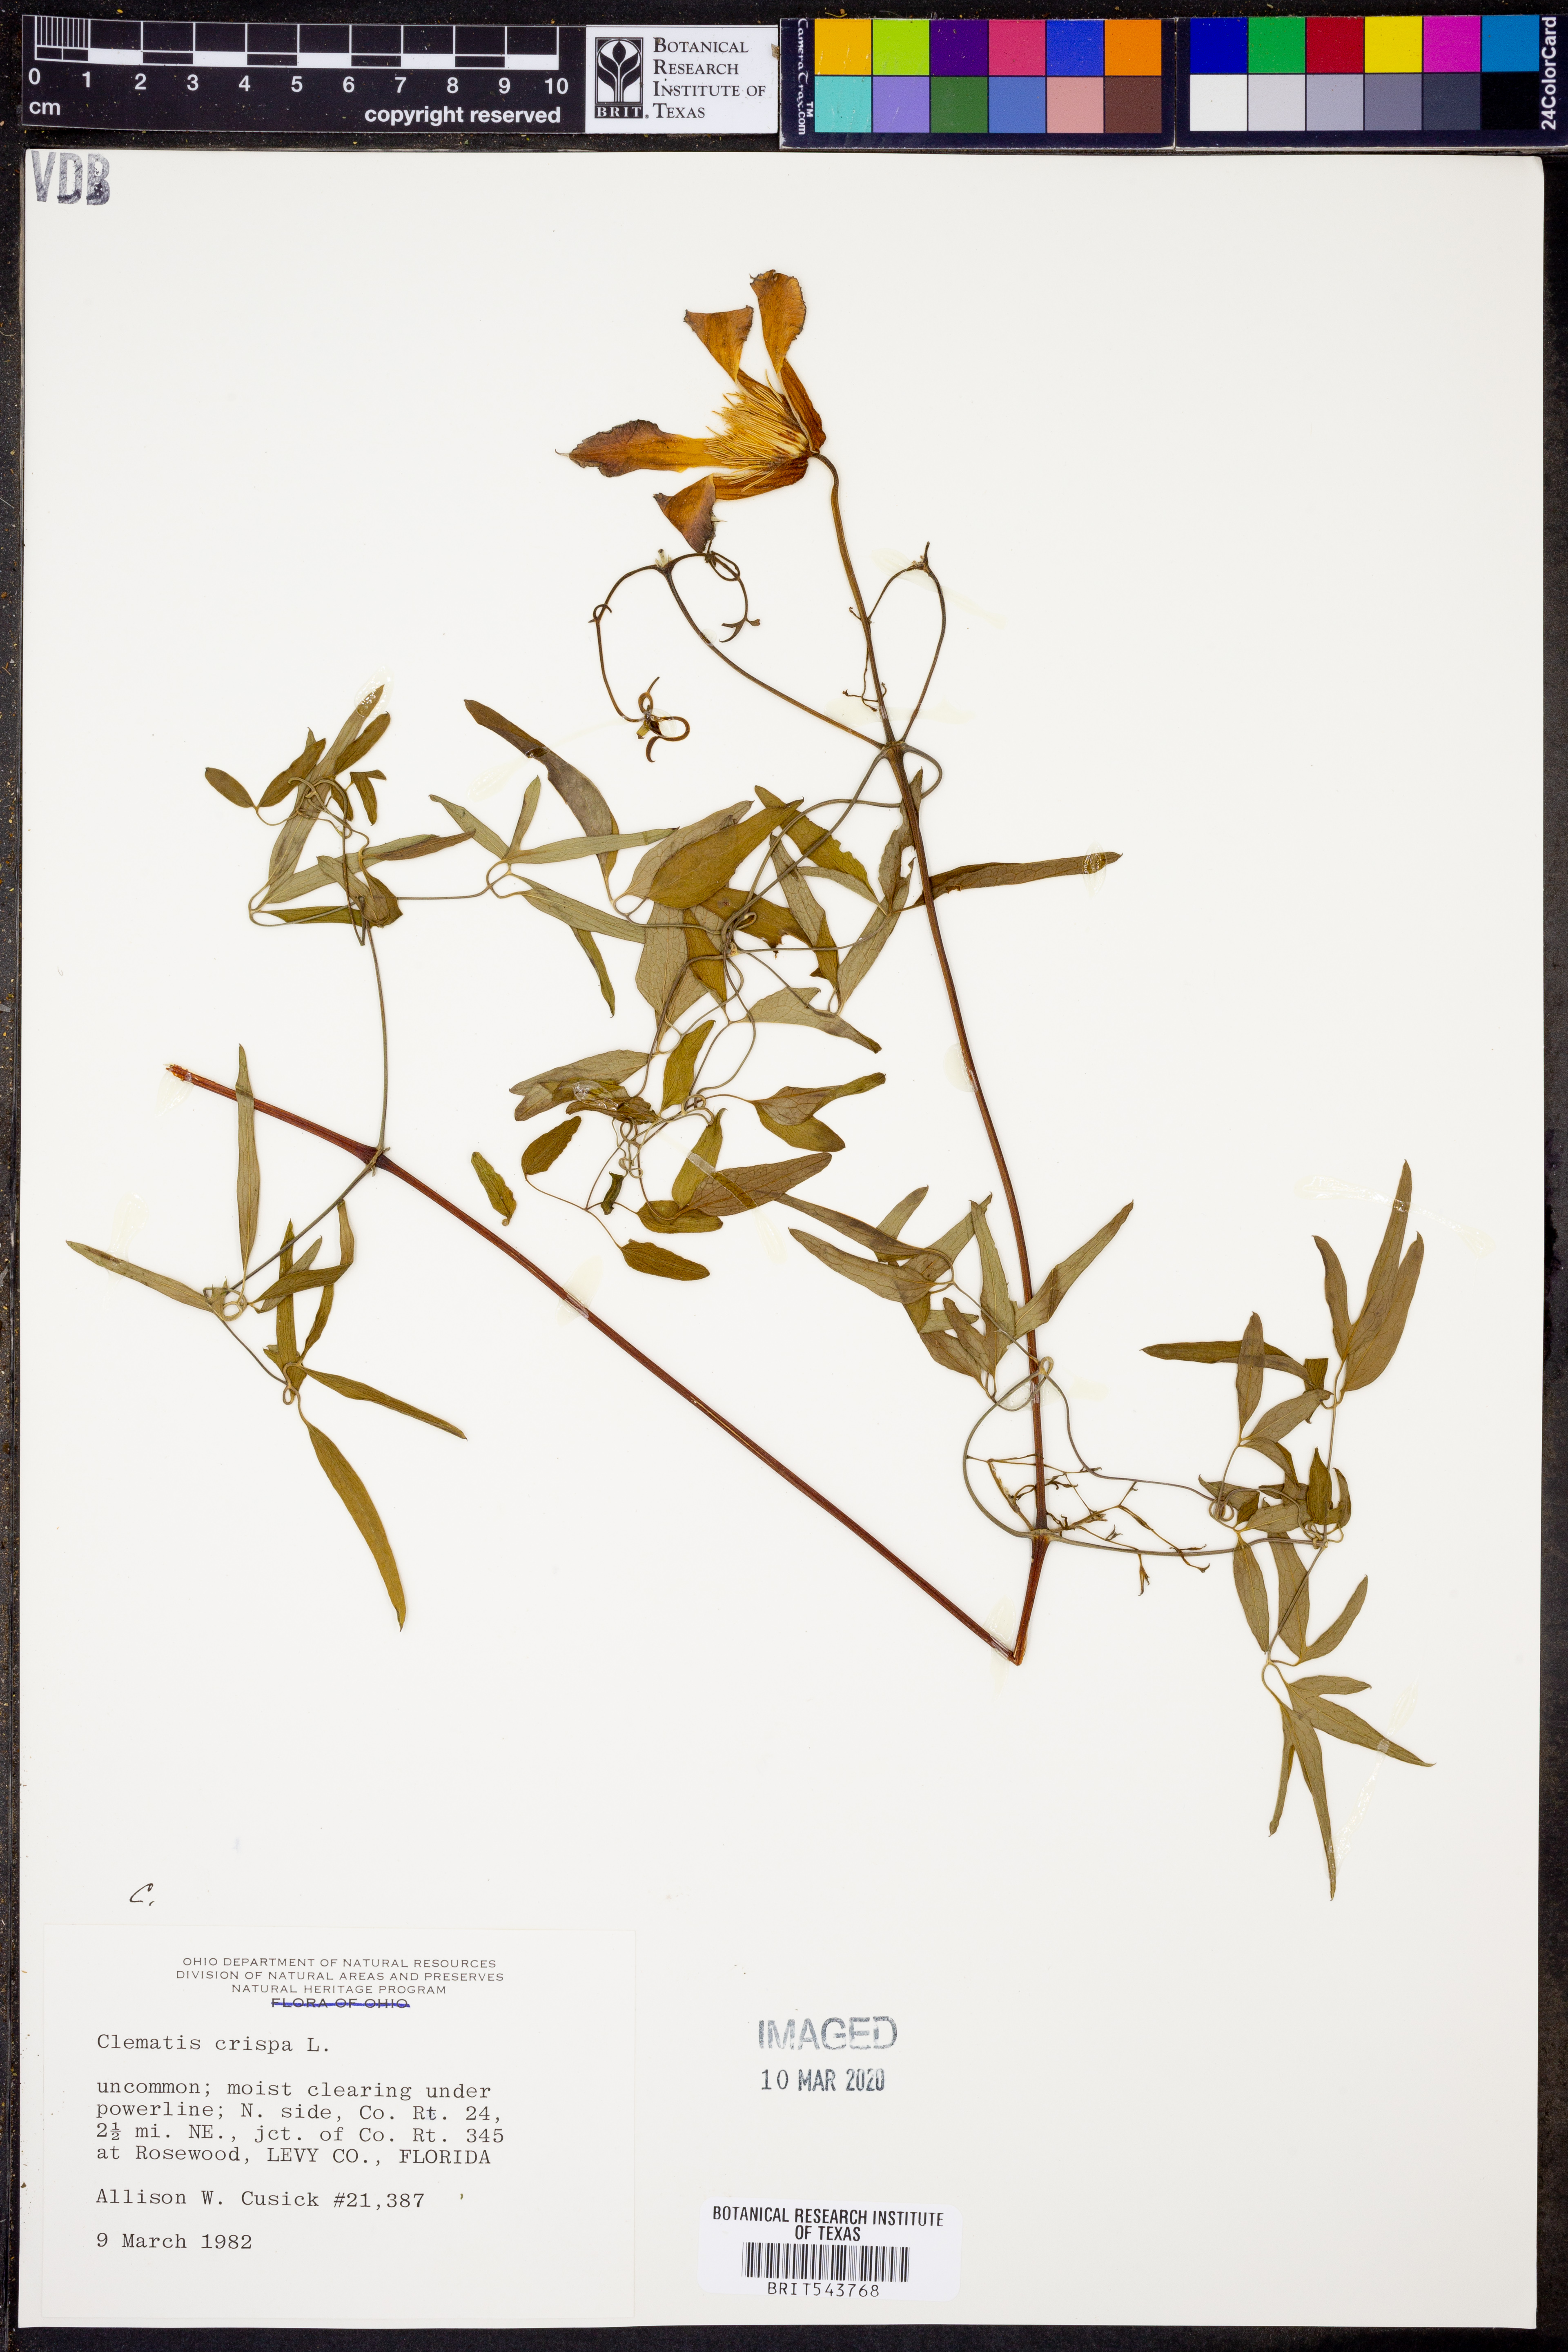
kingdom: Plantae
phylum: Tracheophyta
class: Magnoliopsida
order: Ranunculales
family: Ranunculaceae
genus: Clematis
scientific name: Clematis crispa
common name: Curly clematis
